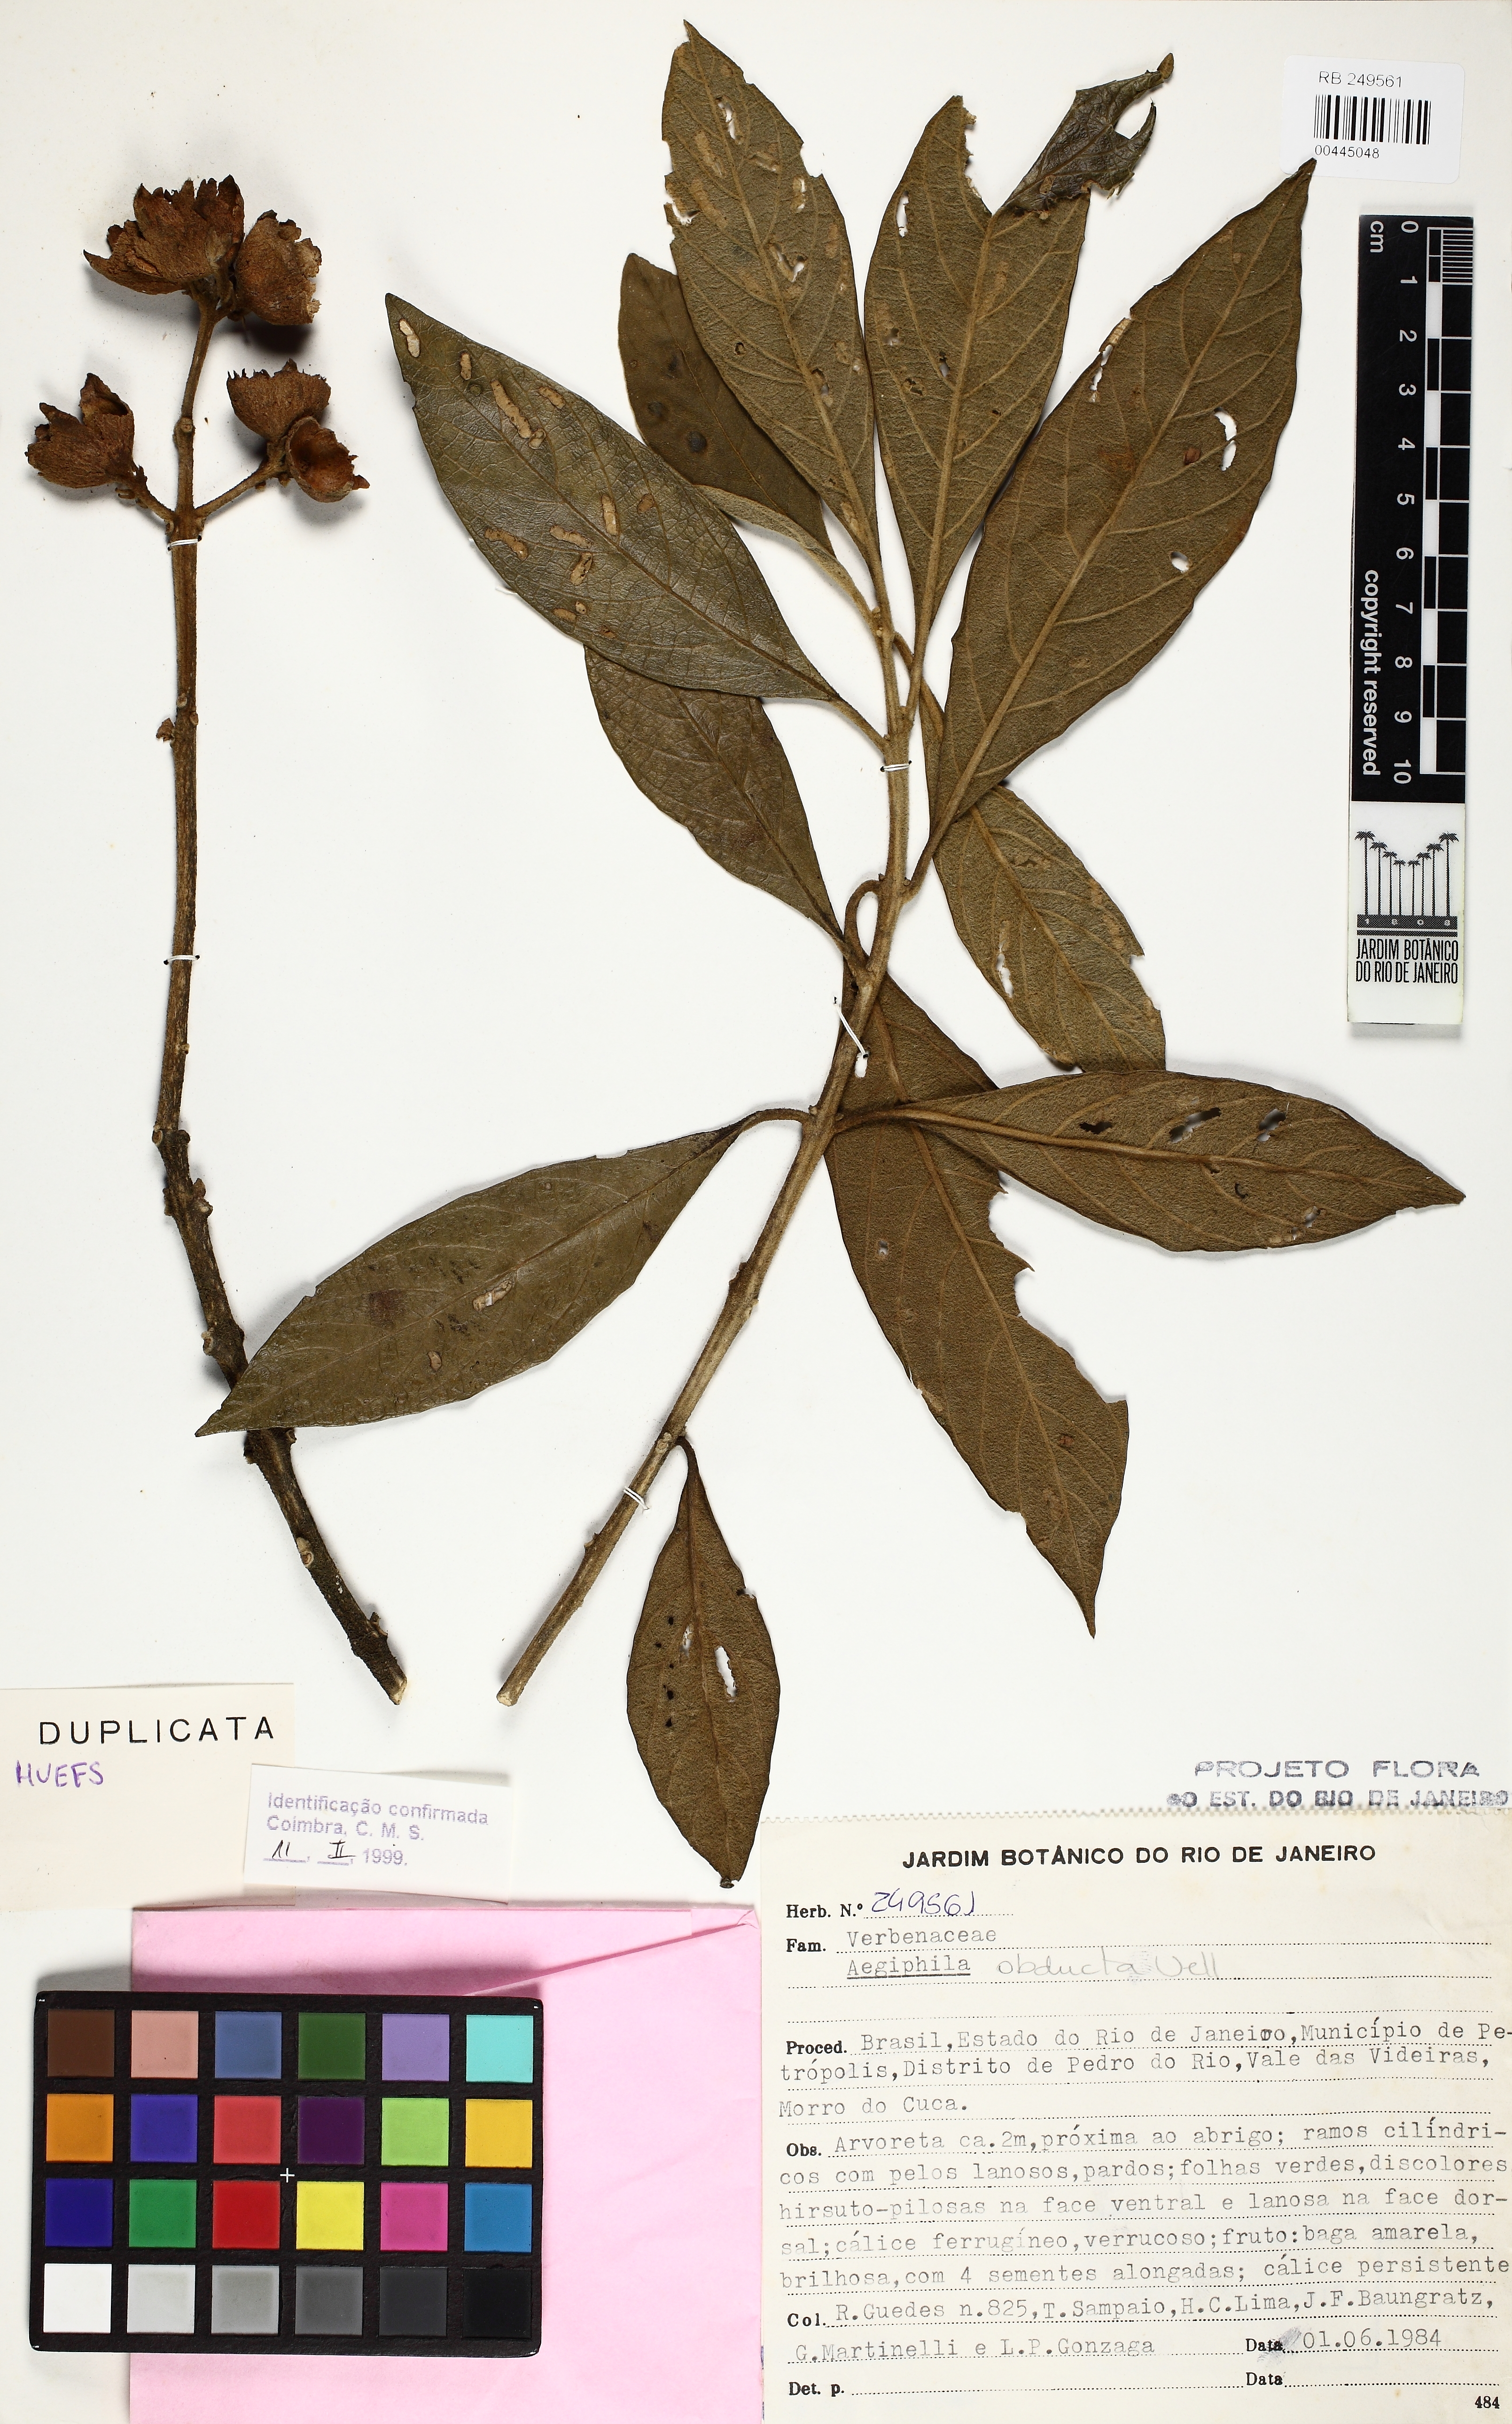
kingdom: Plantae
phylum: Tracheophyta
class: Magnoliopsida
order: Lamiales
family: Lamiaceae
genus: Aegiphila
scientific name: Aegiphila obducta
